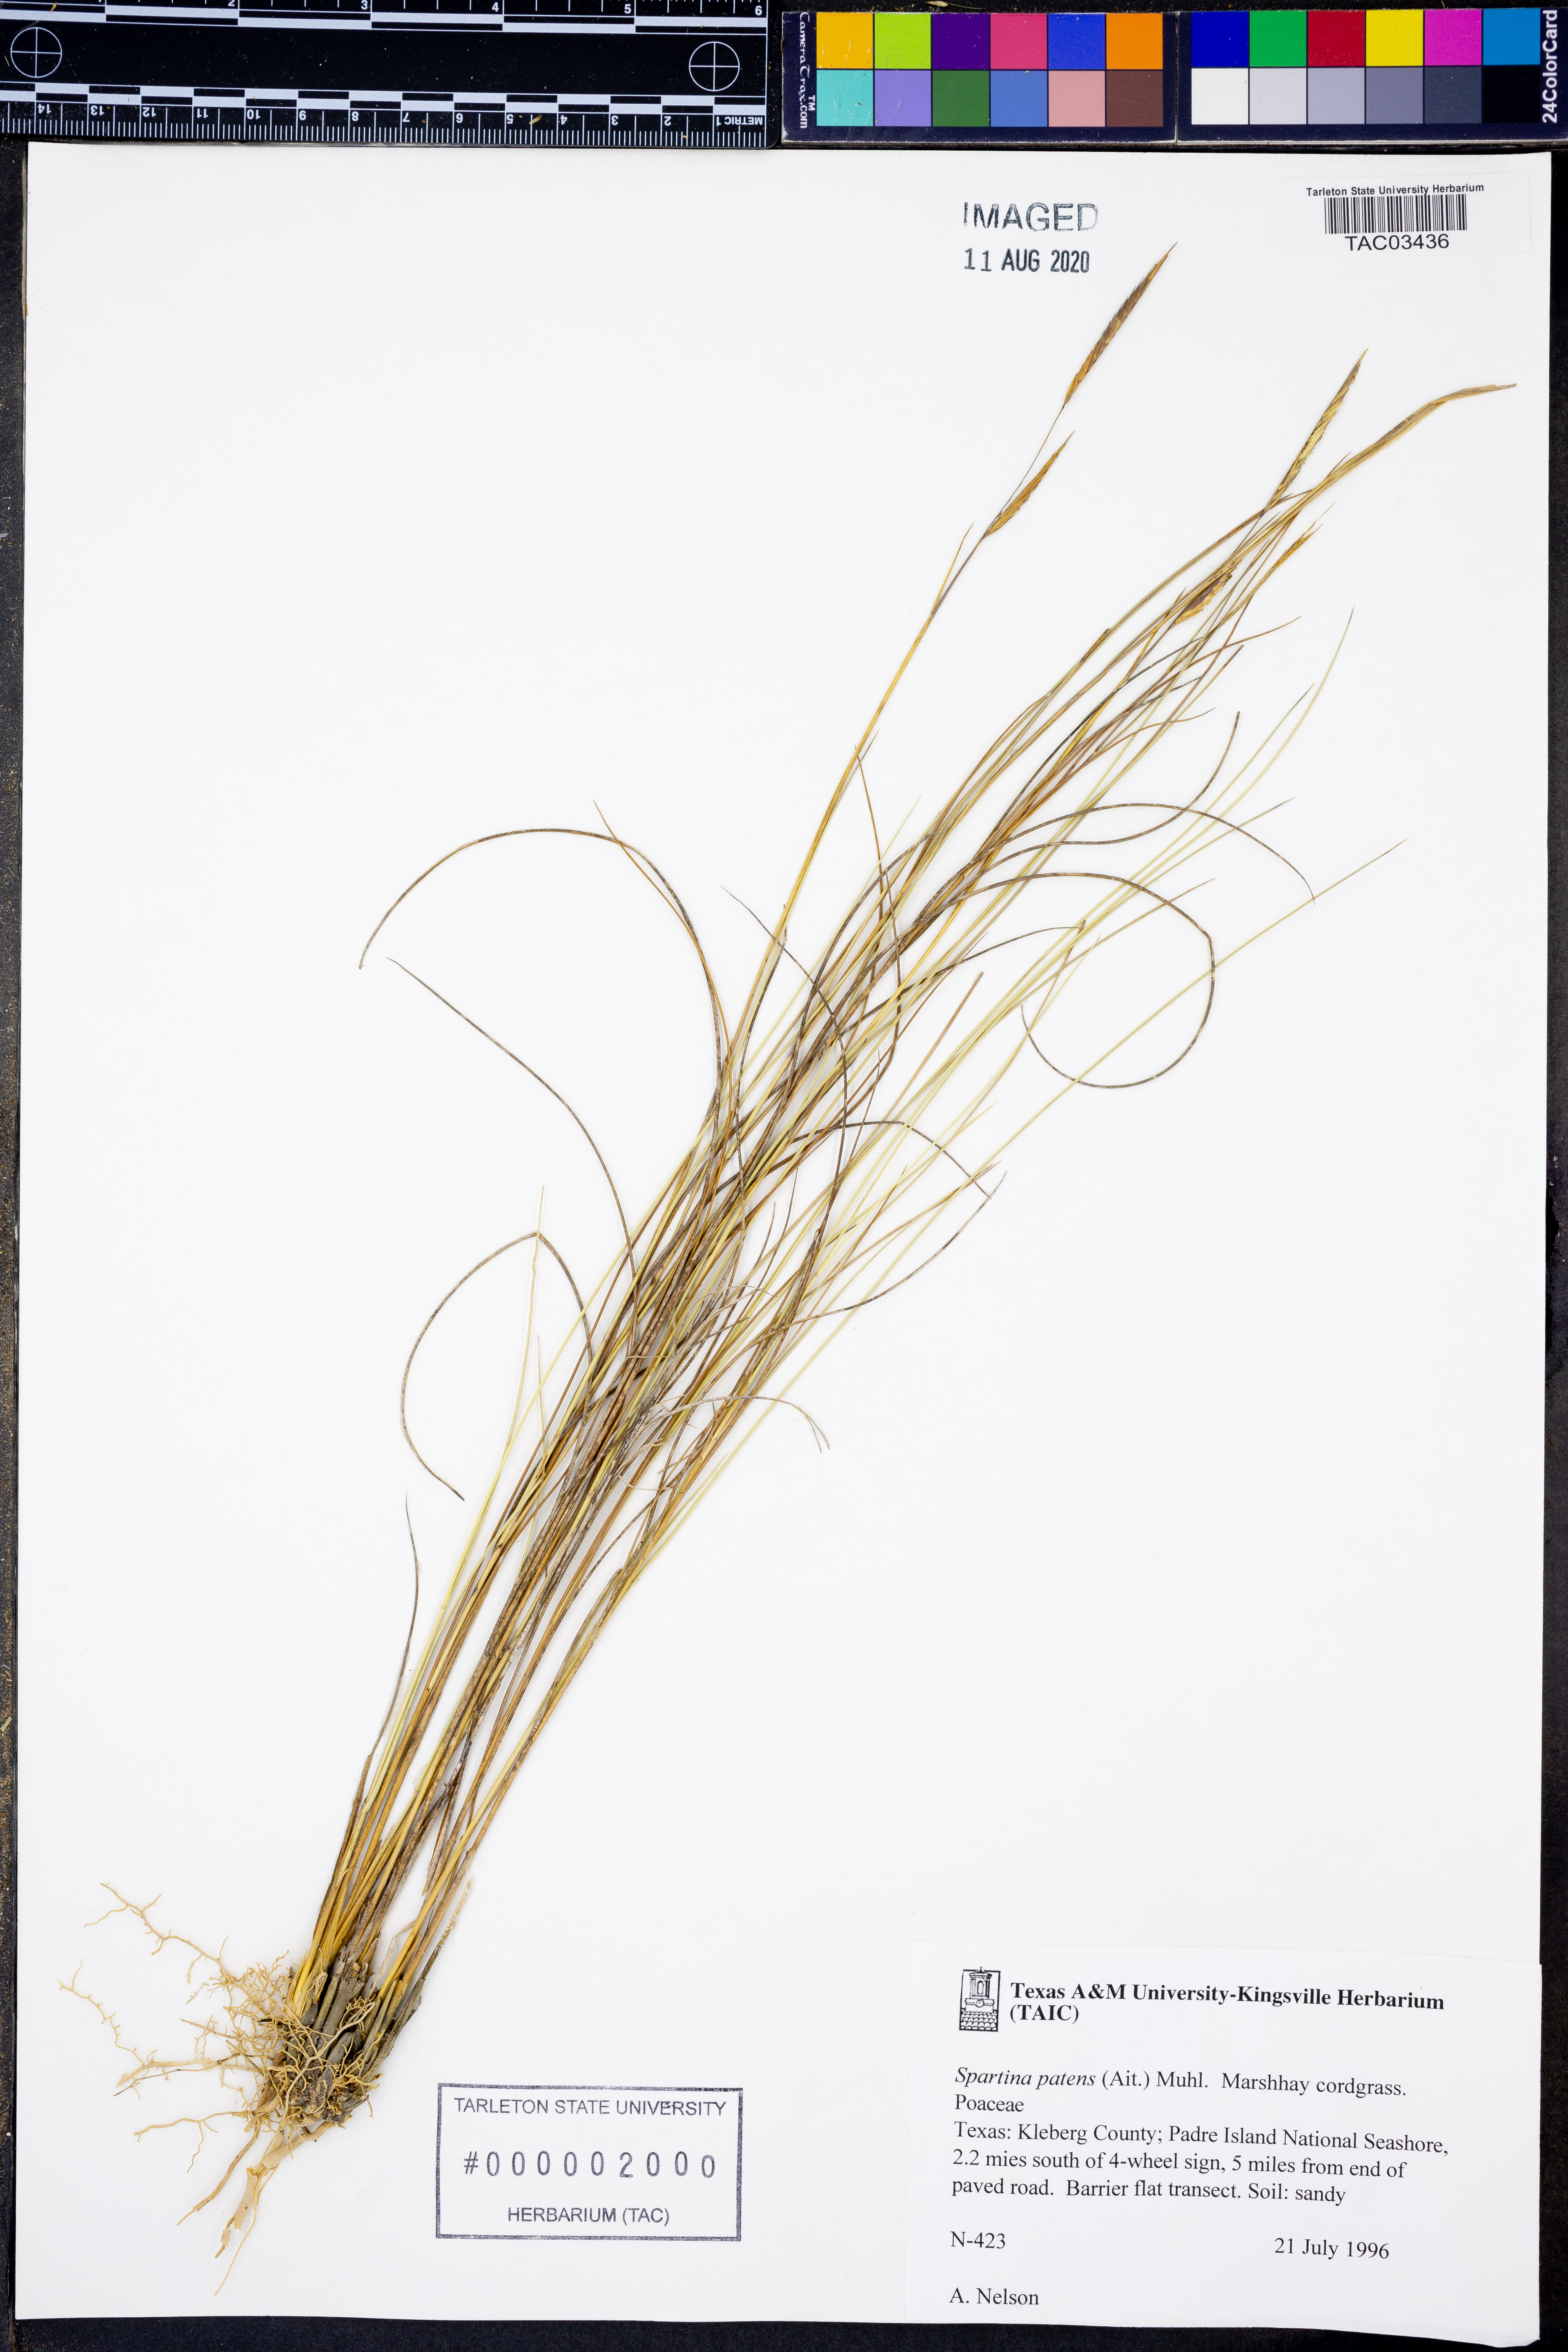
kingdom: Plantae
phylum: Tracheophyta
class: Liliopsida
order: Poales
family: Poaceae
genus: Sporobolus
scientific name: Sporobolus pumilus
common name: Highwater grass
